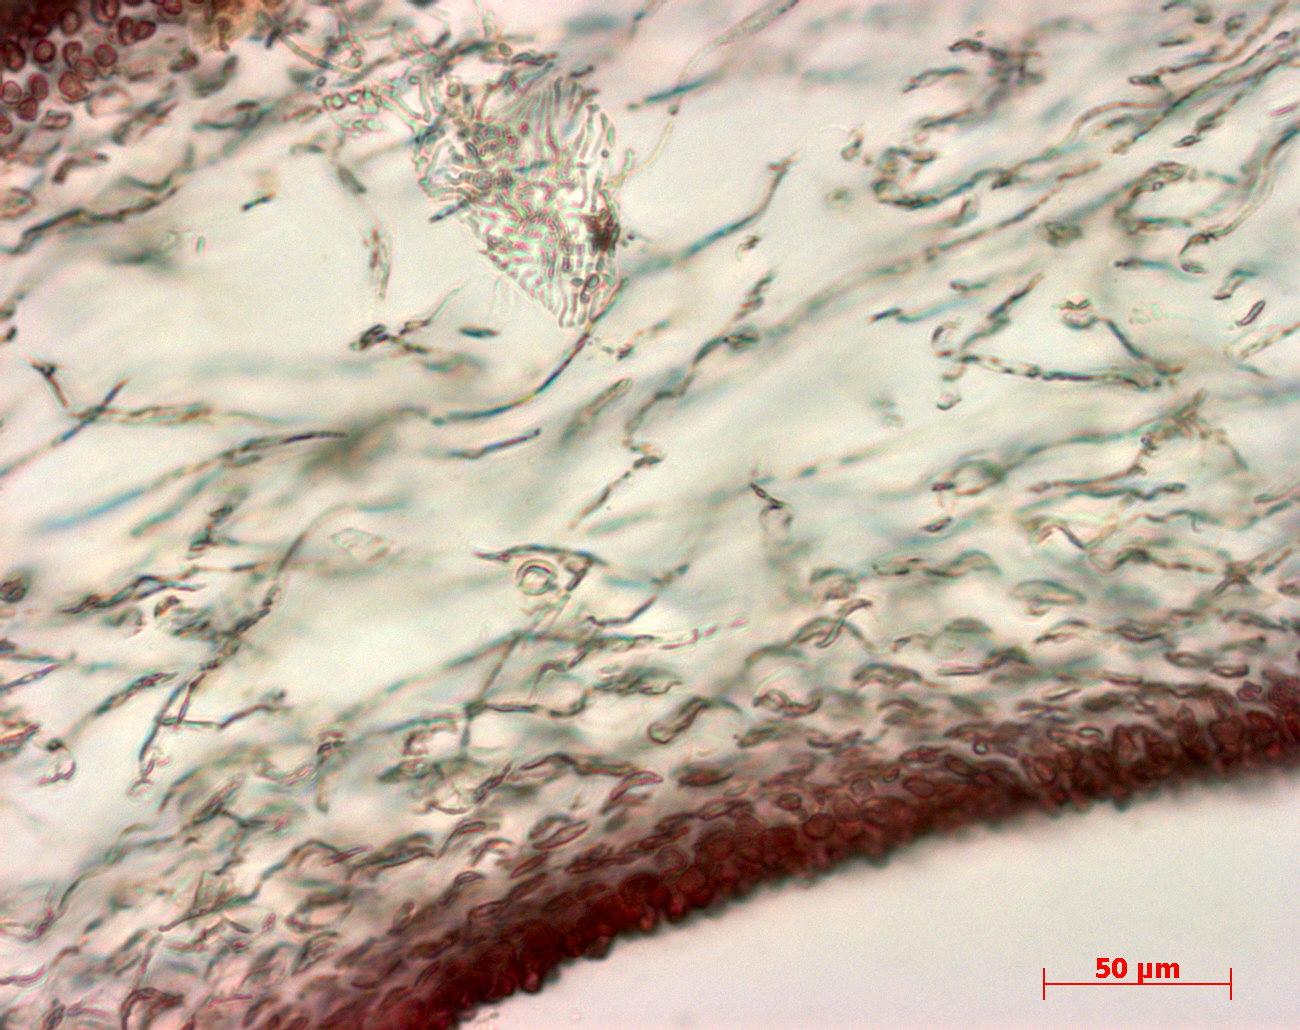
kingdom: Plantae
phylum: Rhodophyta
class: Florideophyceae
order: Halymeniales
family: Halymeniaceae
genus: Grateloupia
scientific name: Grateloupia
